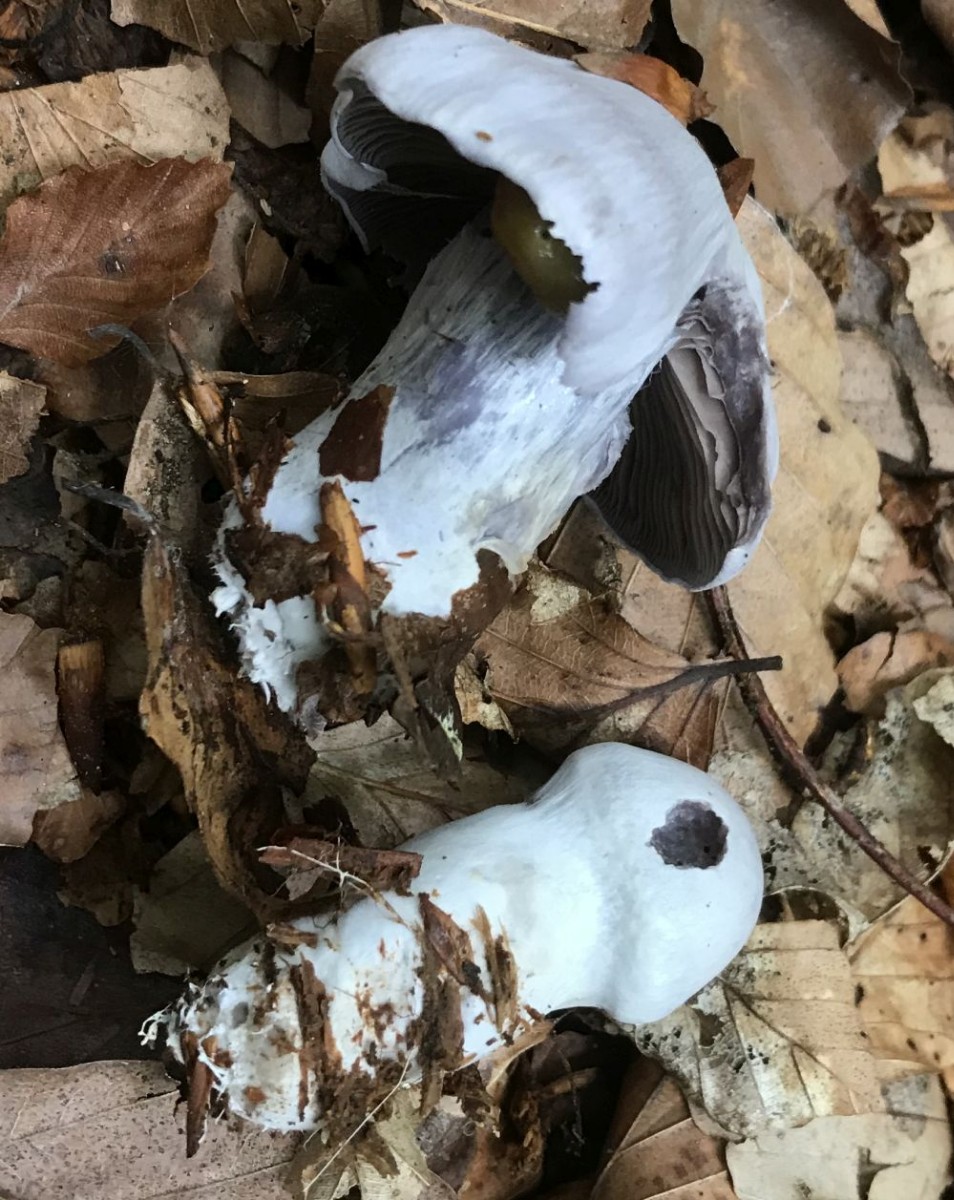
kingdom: Fungi
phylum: Basidiomycota
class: Agaricomycetes
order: Agaricales
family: Cortinariaceae
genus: Cortinarius
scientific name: Cortinarius alboviolaceus
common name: lysviolet slørhat
